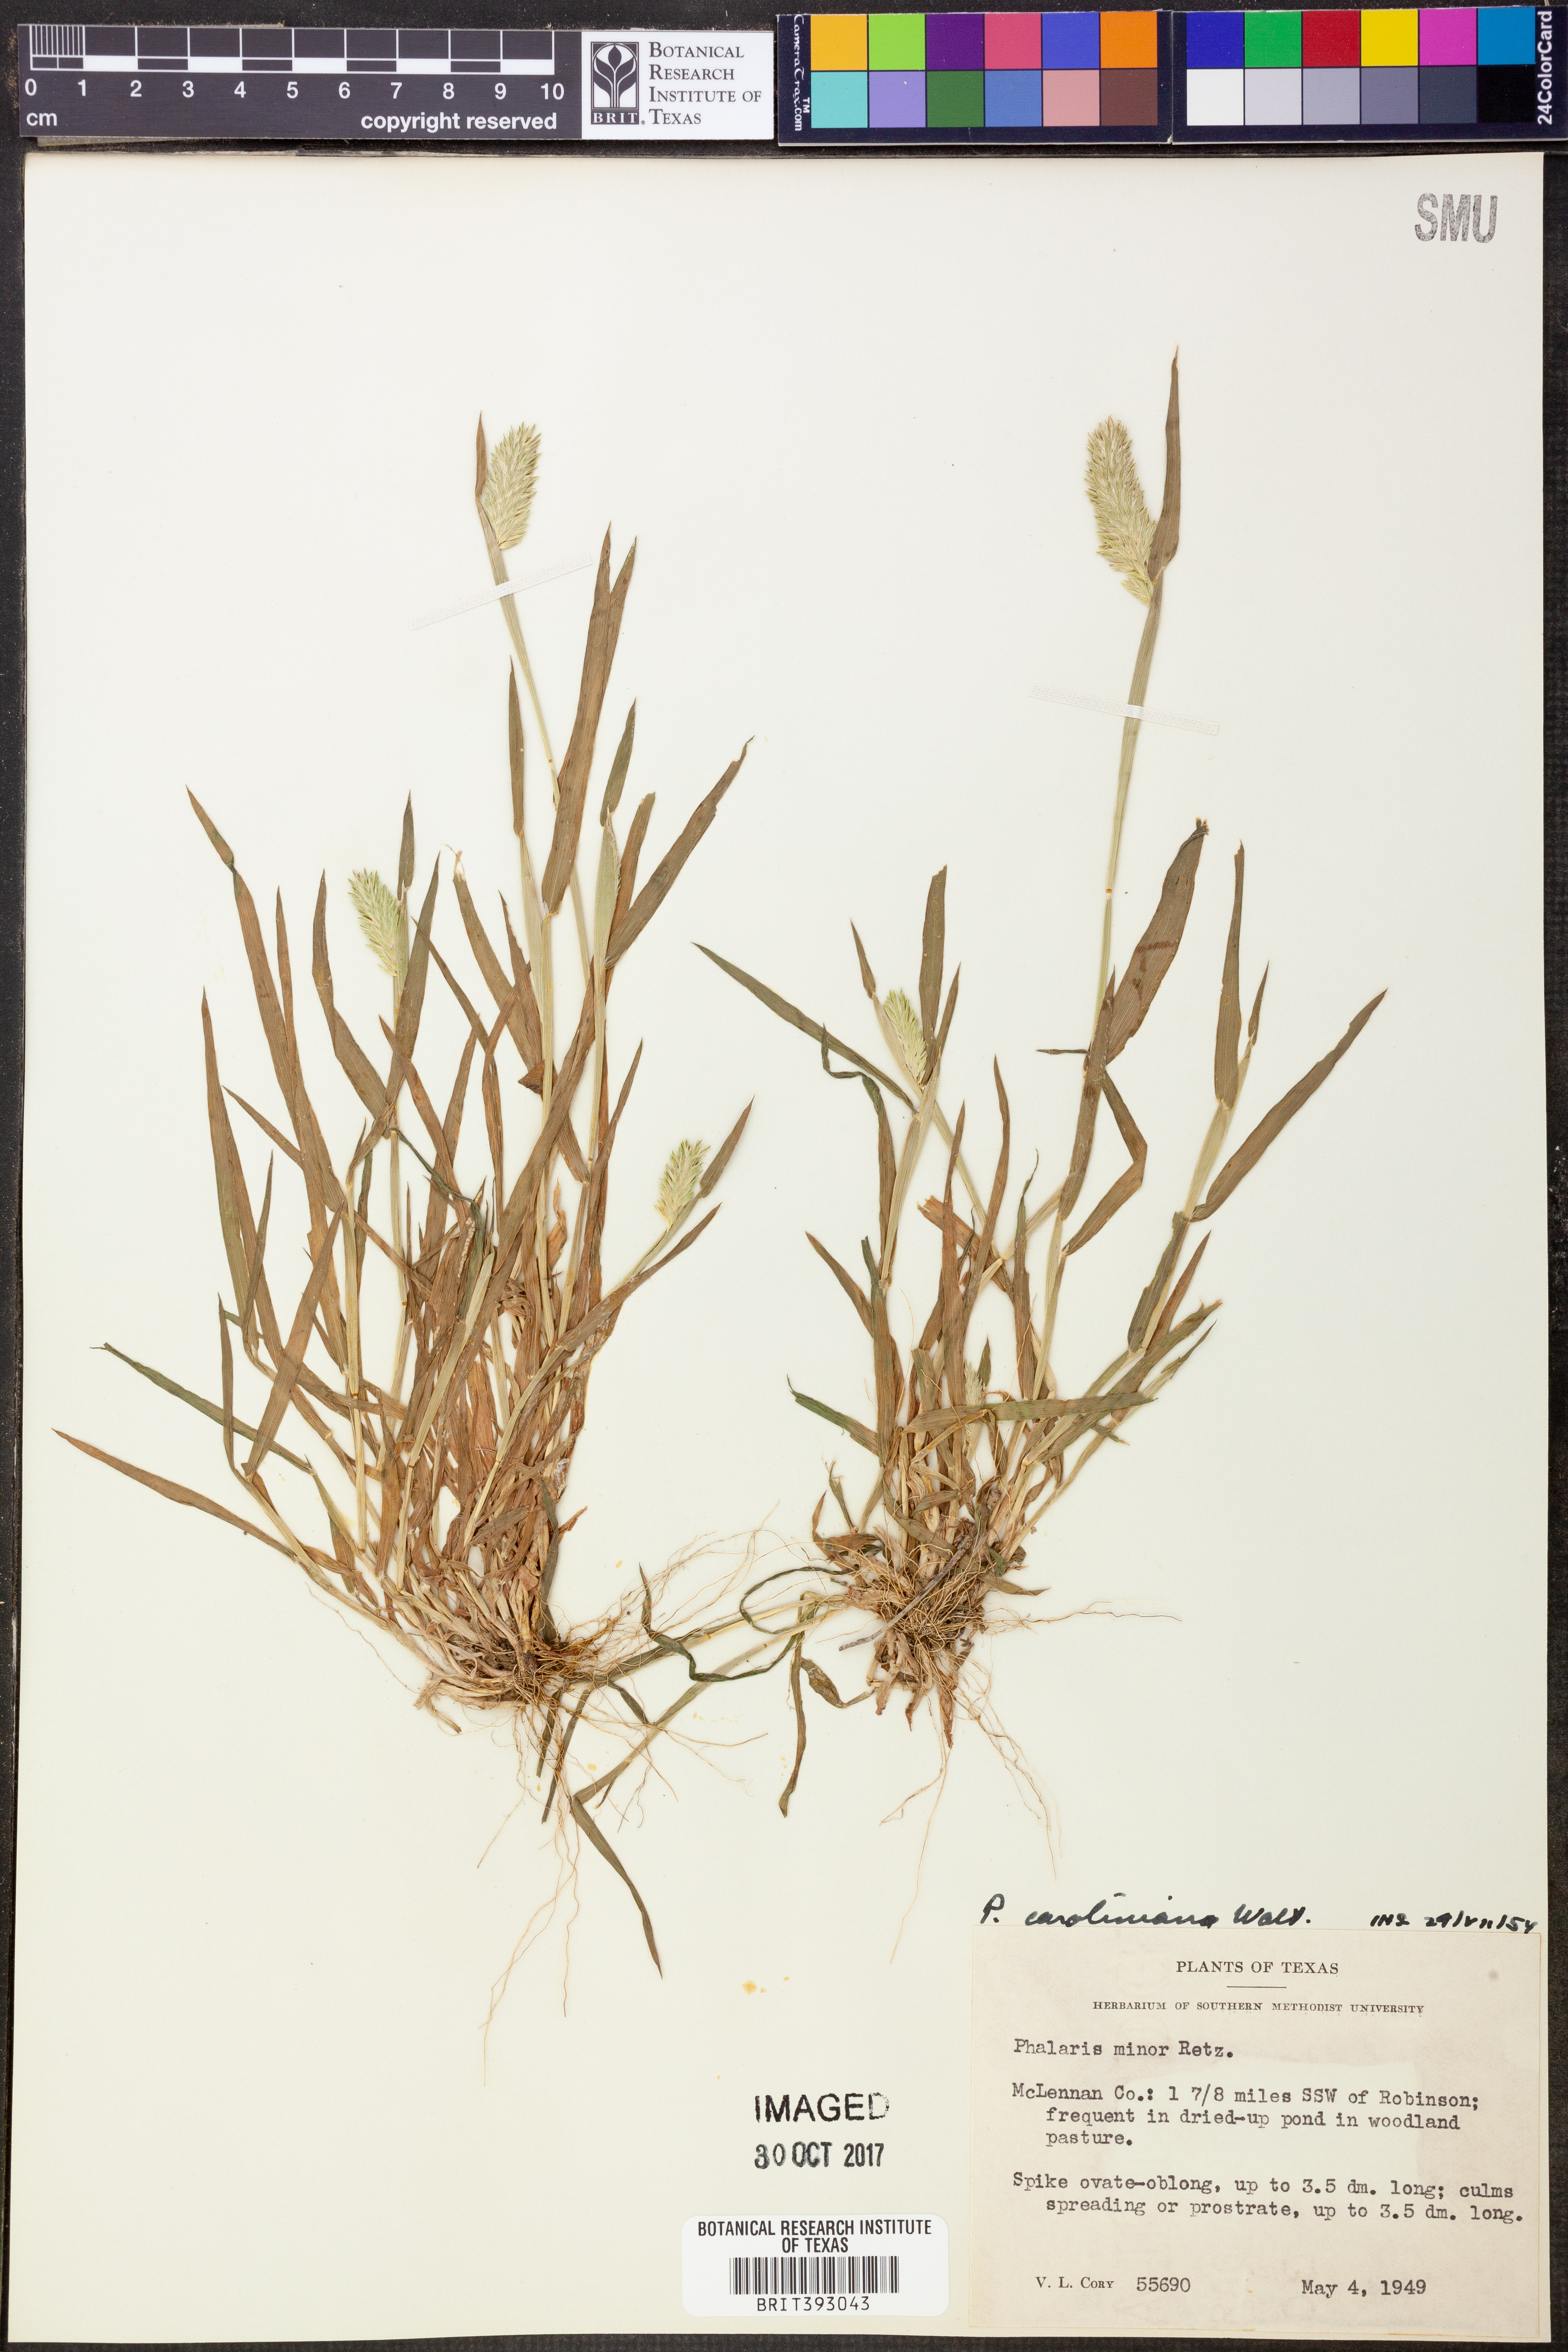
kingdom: Plantae
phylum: Tracheophyta
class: Liliopsida
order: Poales
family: Poaceae
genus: Phalaris
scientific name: Phalaris caroliniana
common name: May grass
